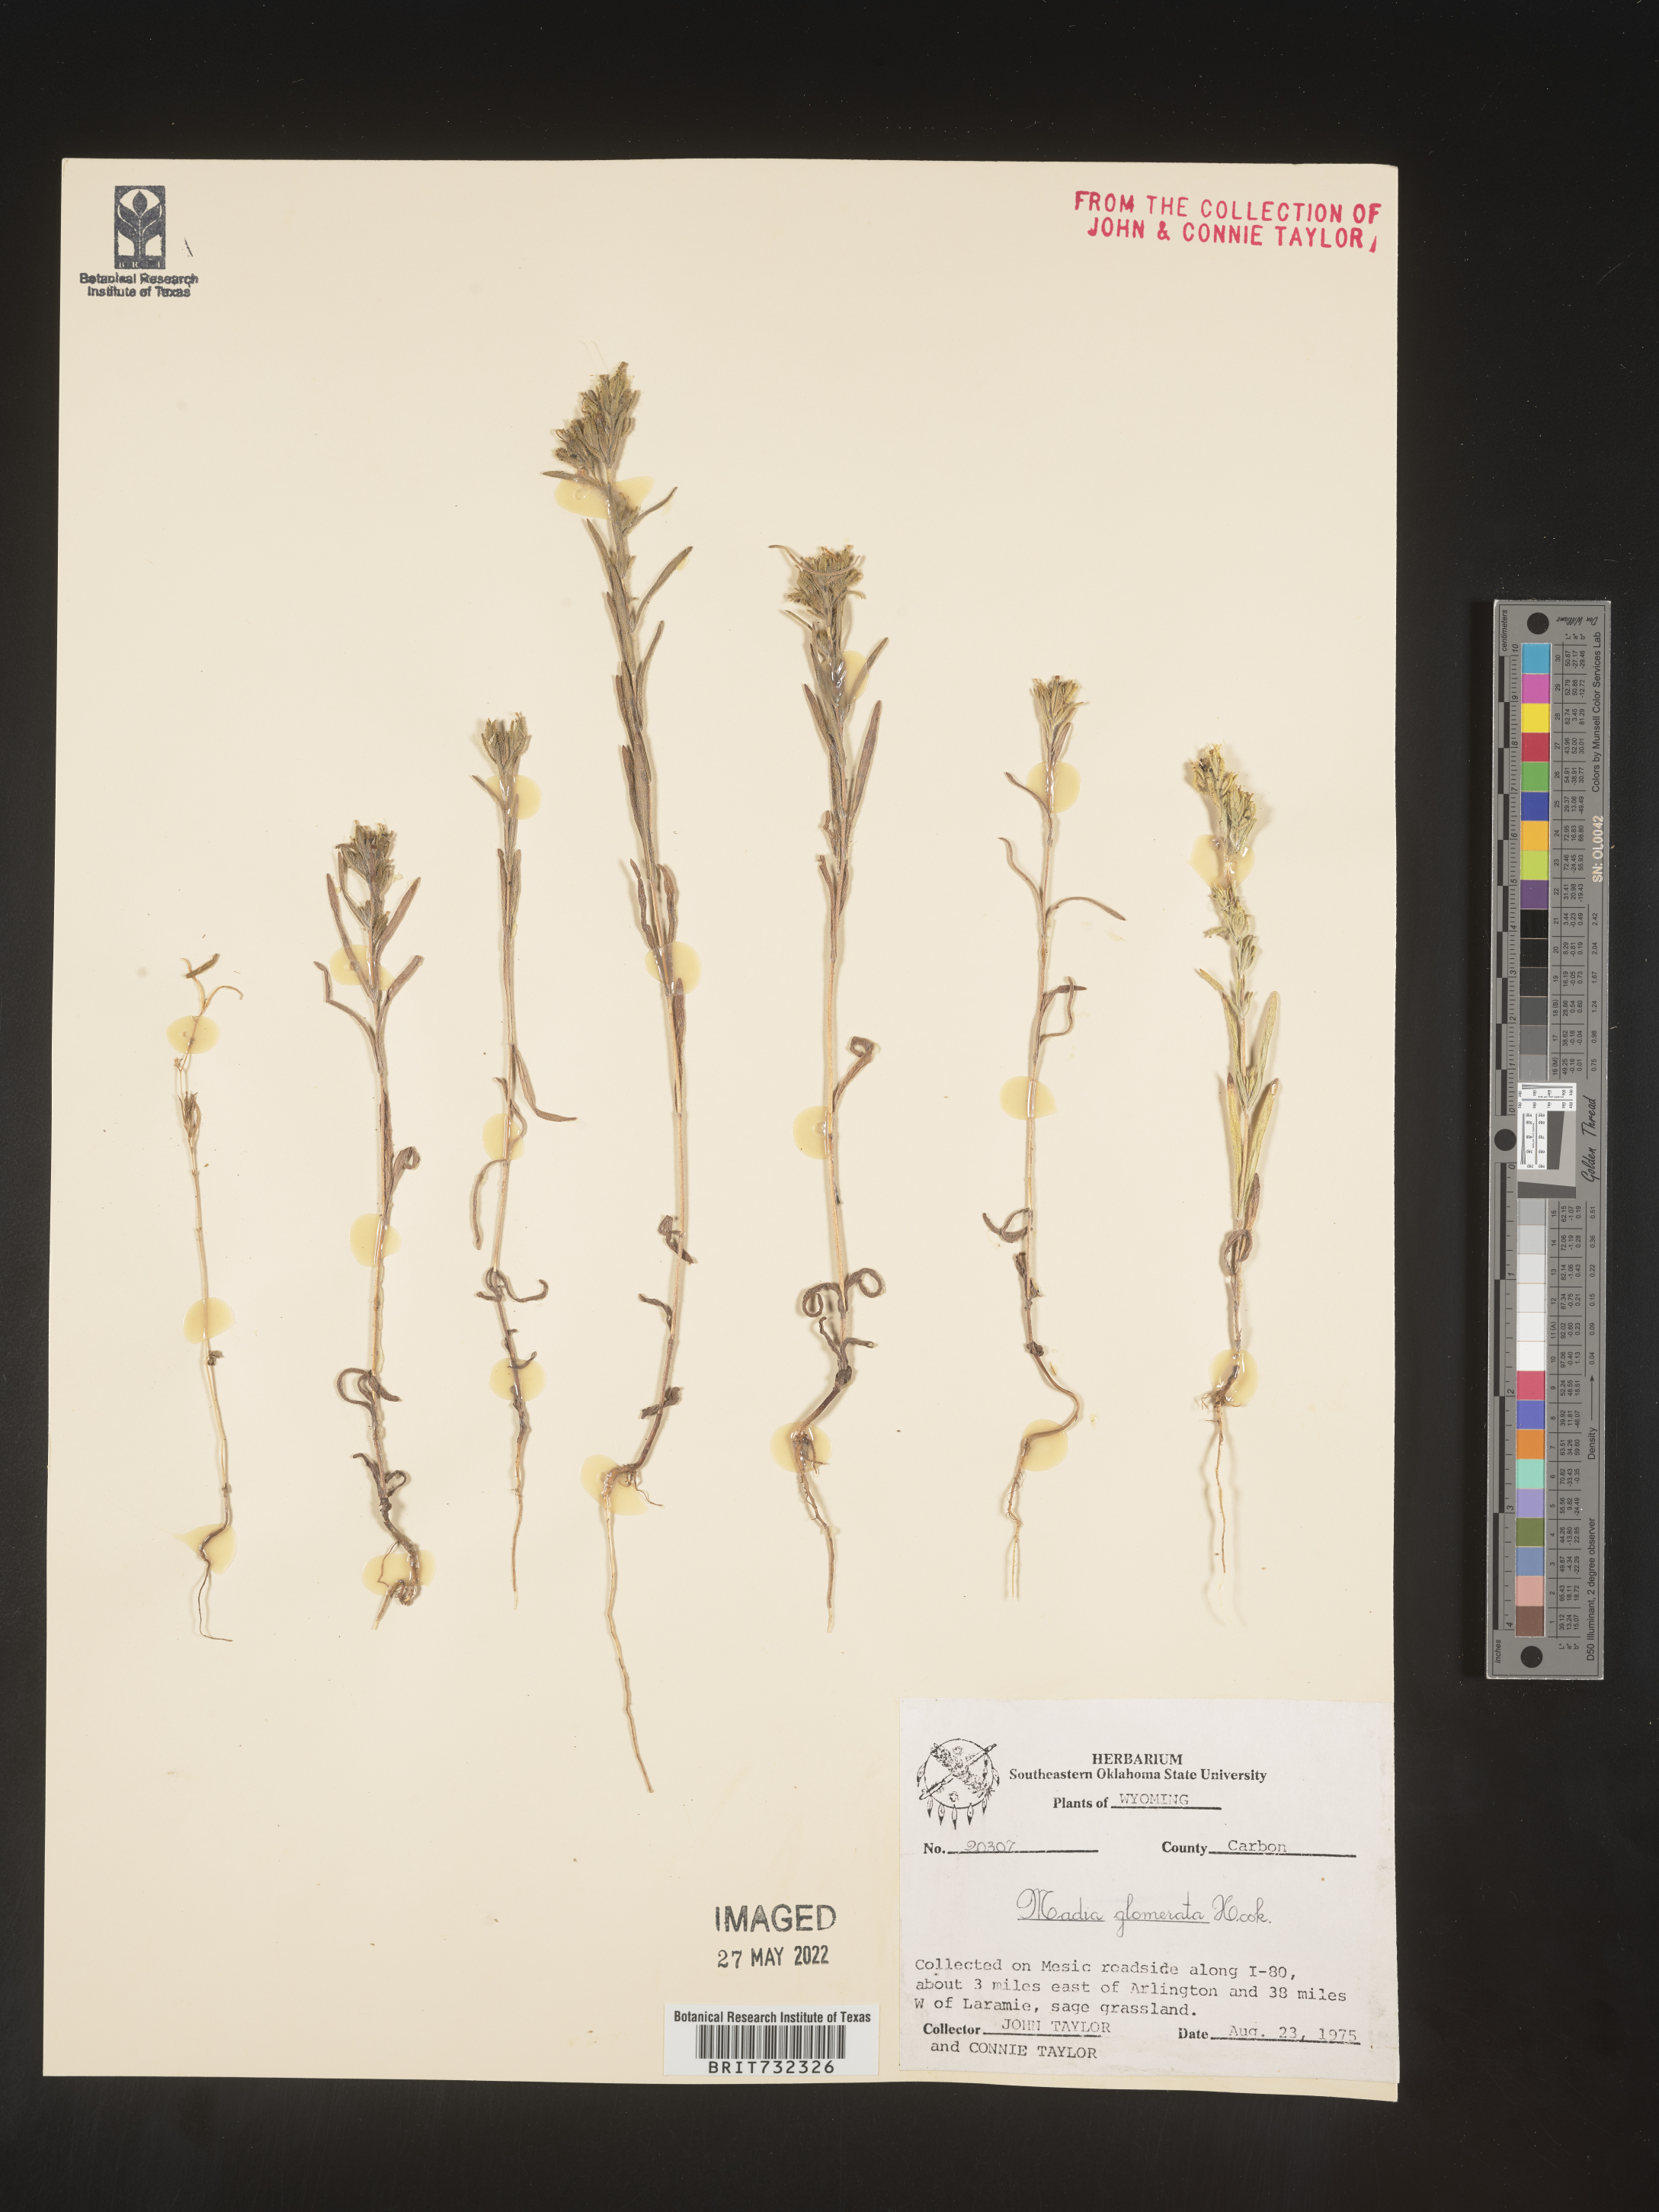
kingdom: Plantae
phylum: Tracheophyta
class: Magnoliopsida
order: Asterales
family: Asteraceae
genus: Madia
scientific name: Madia glomerata
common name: Mountain tarweed
